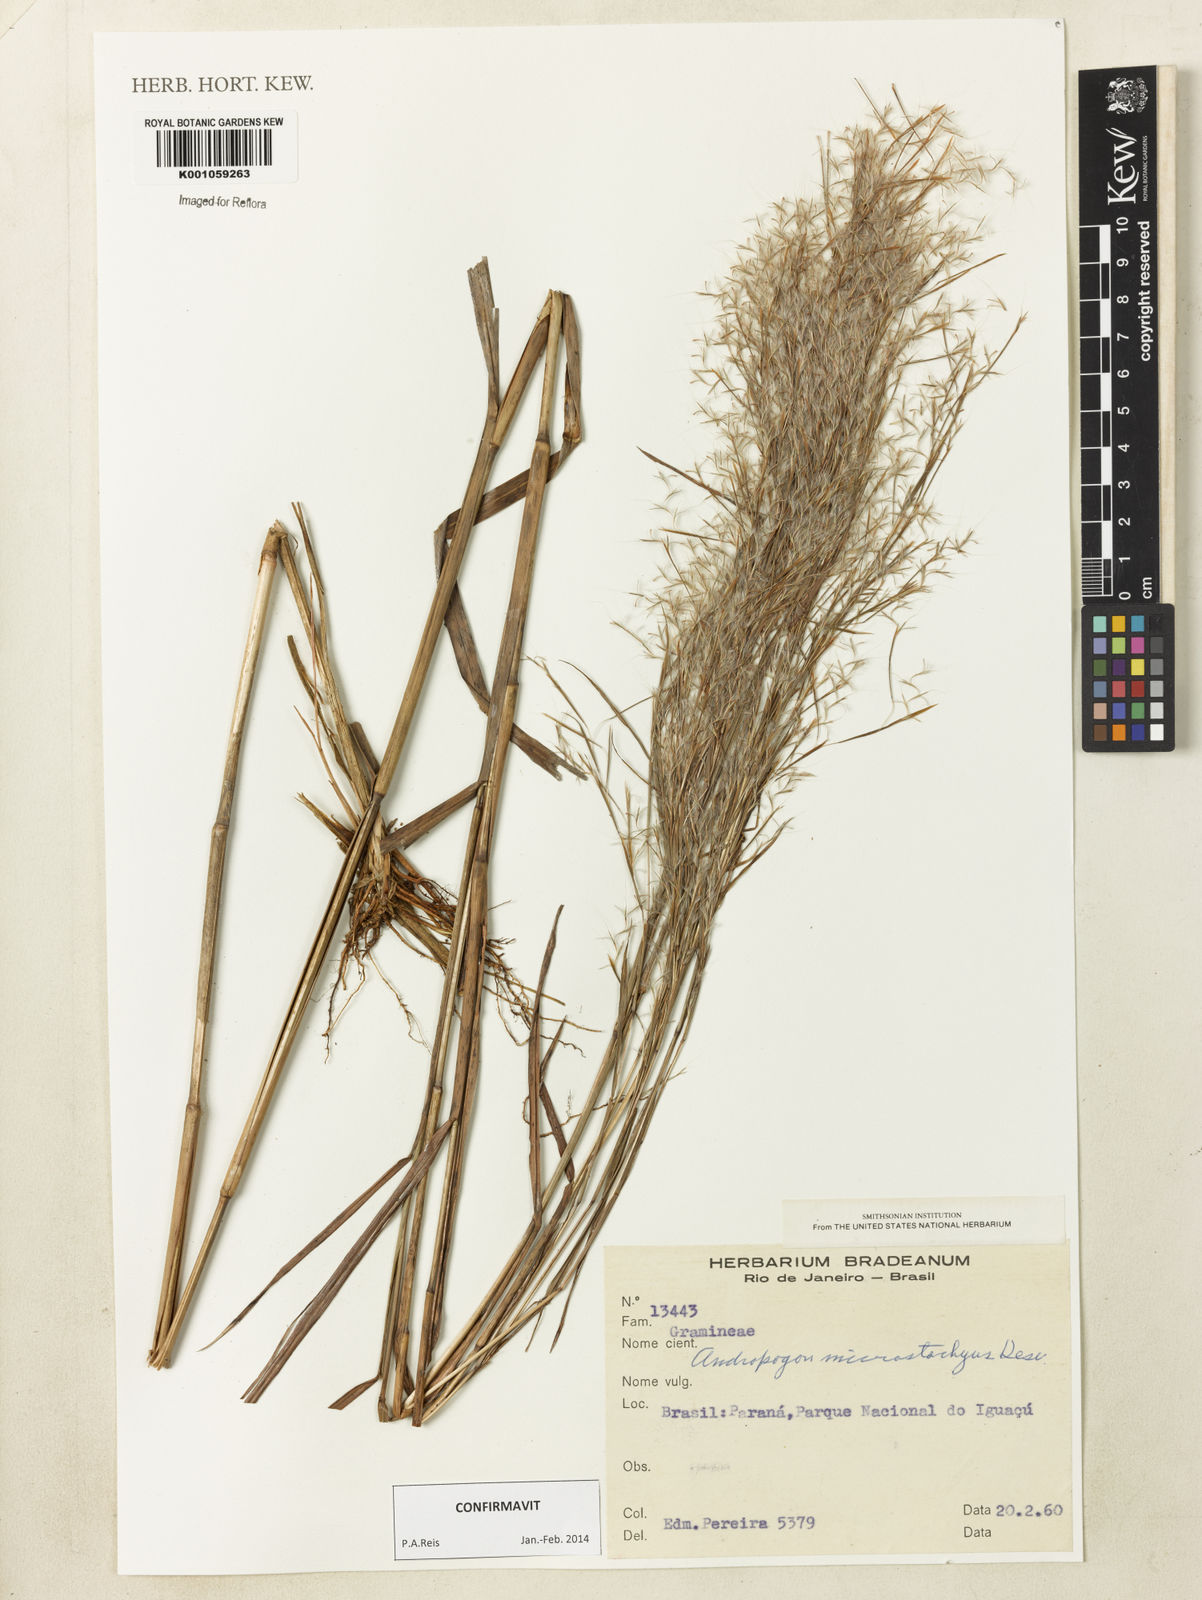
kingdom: Plantae
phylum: Tracheophyta
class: Liliopsida
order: Poales
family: Poaceae
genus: Schizachyrium
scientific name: Schizachyrium
